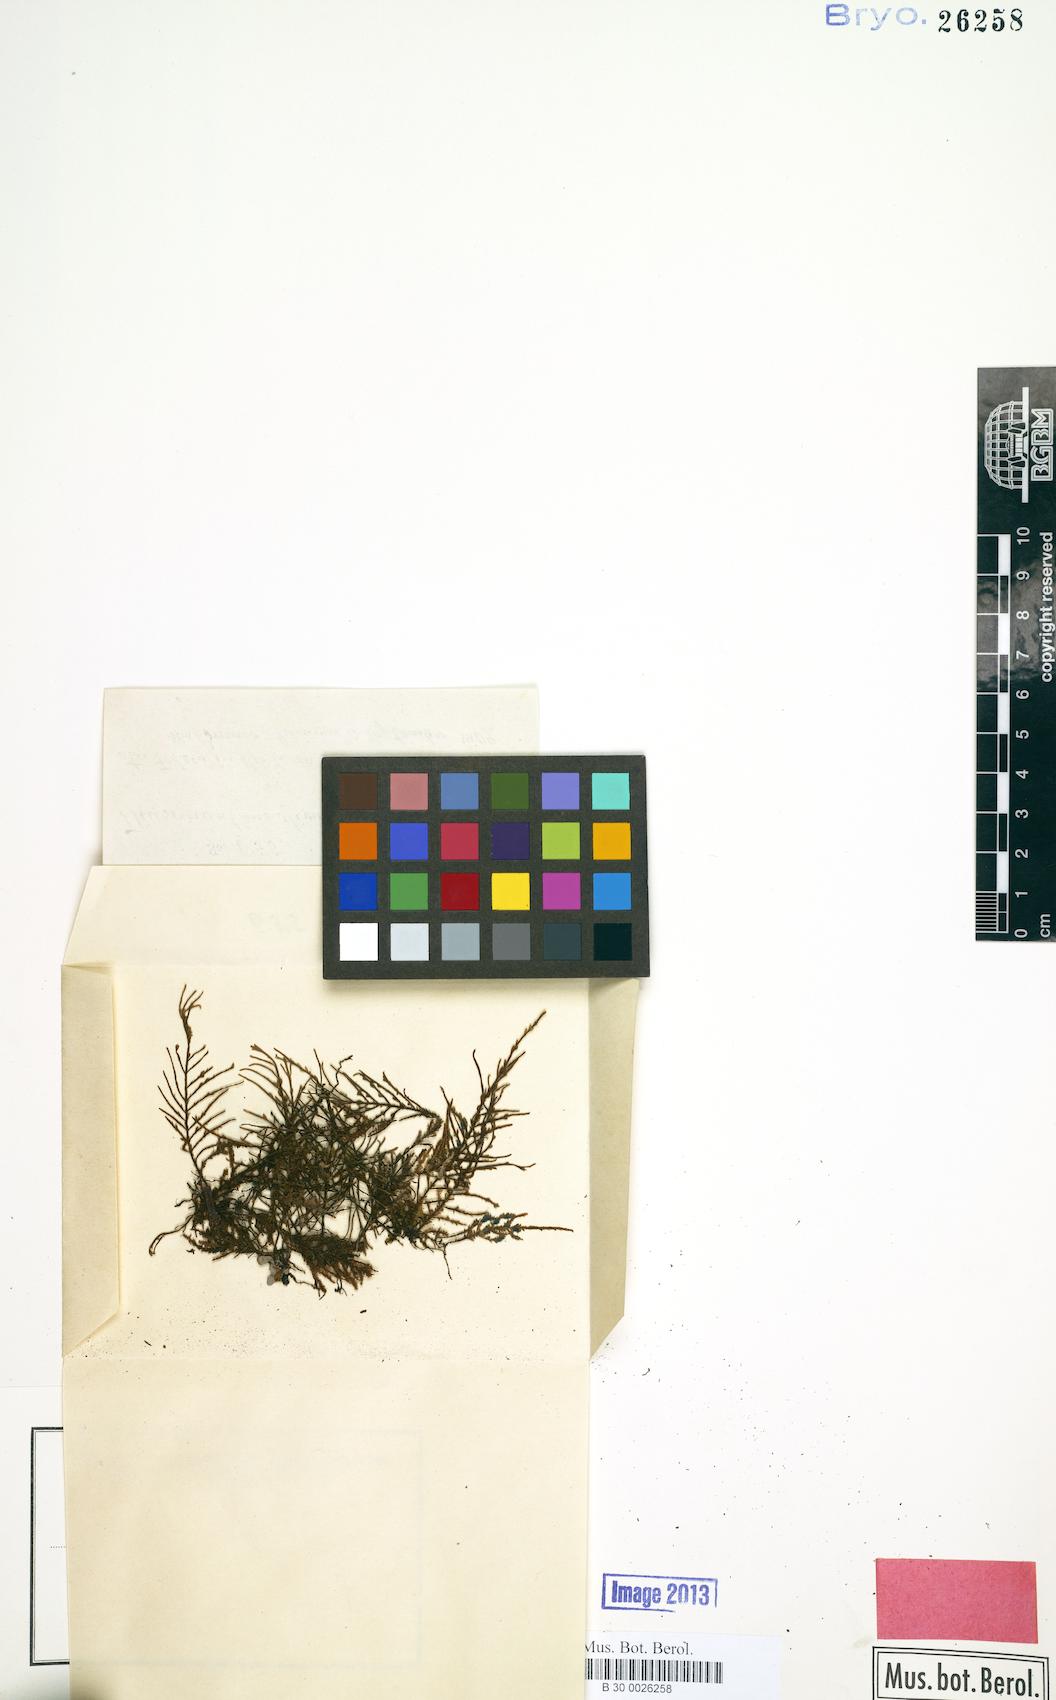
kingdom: Plantae
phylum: Marchantiophyta
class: Jungermanniopsida
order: Porellales
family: Lejeuneaceae
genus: Thysananthus
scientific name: Thysananthus
